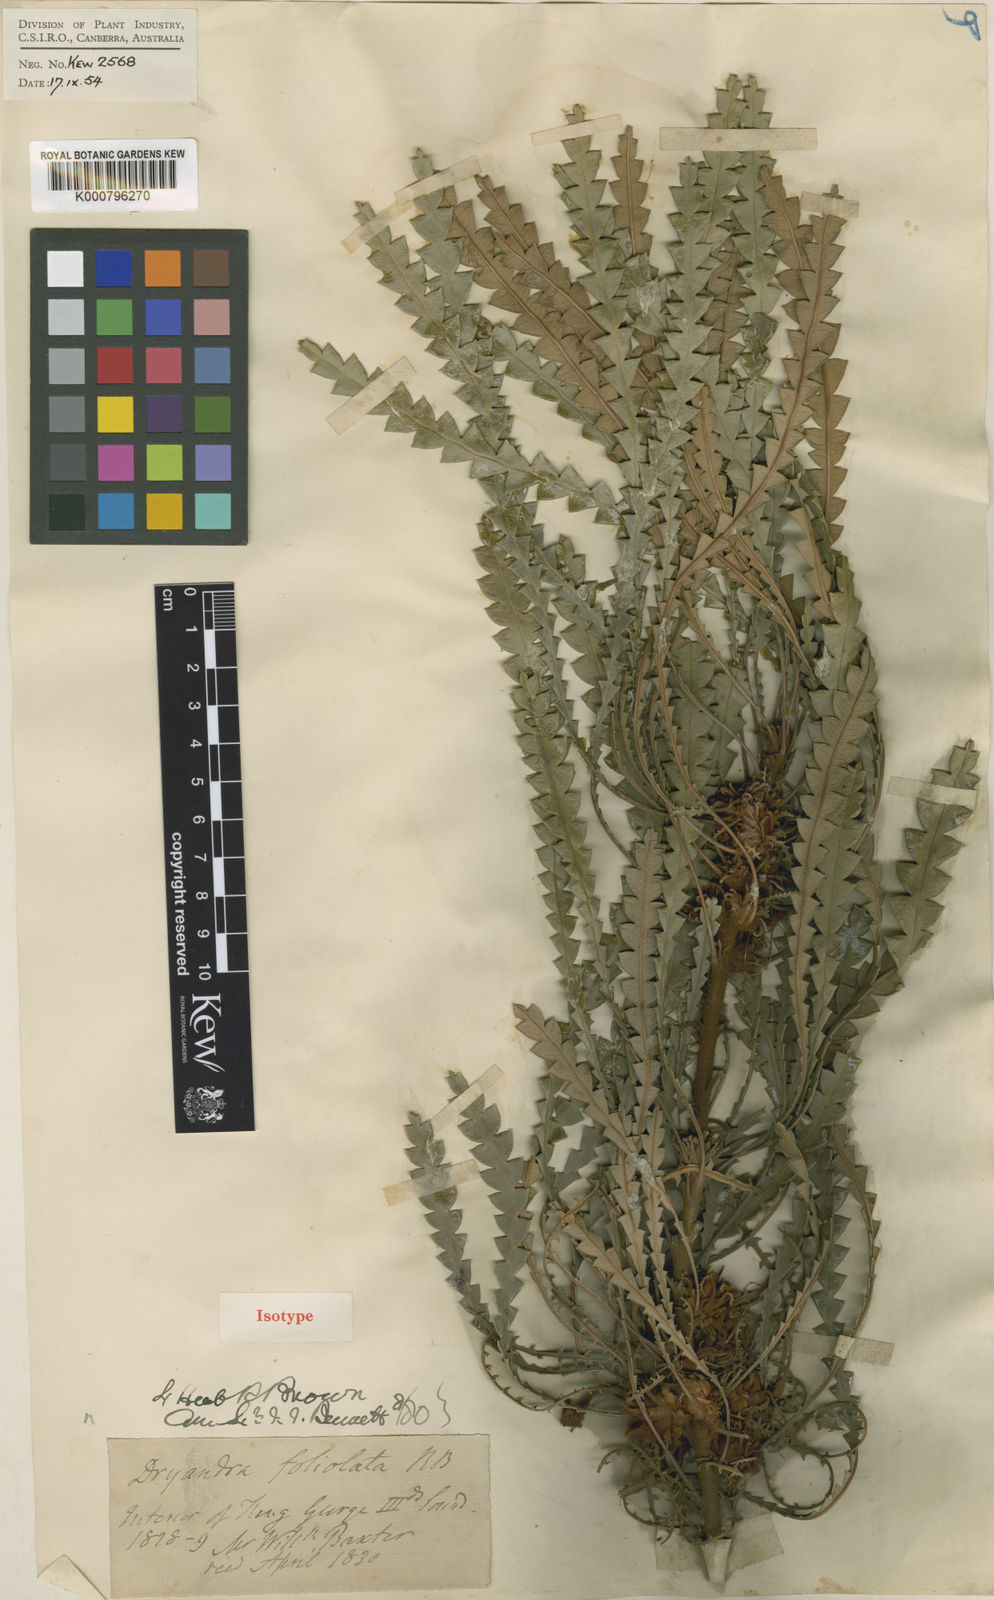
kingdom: Plantae
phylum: Tracheophyta
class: Magnoliopsida
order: Proteales
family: Proteaceae
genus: Banksia
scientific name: Banksia foliolata
